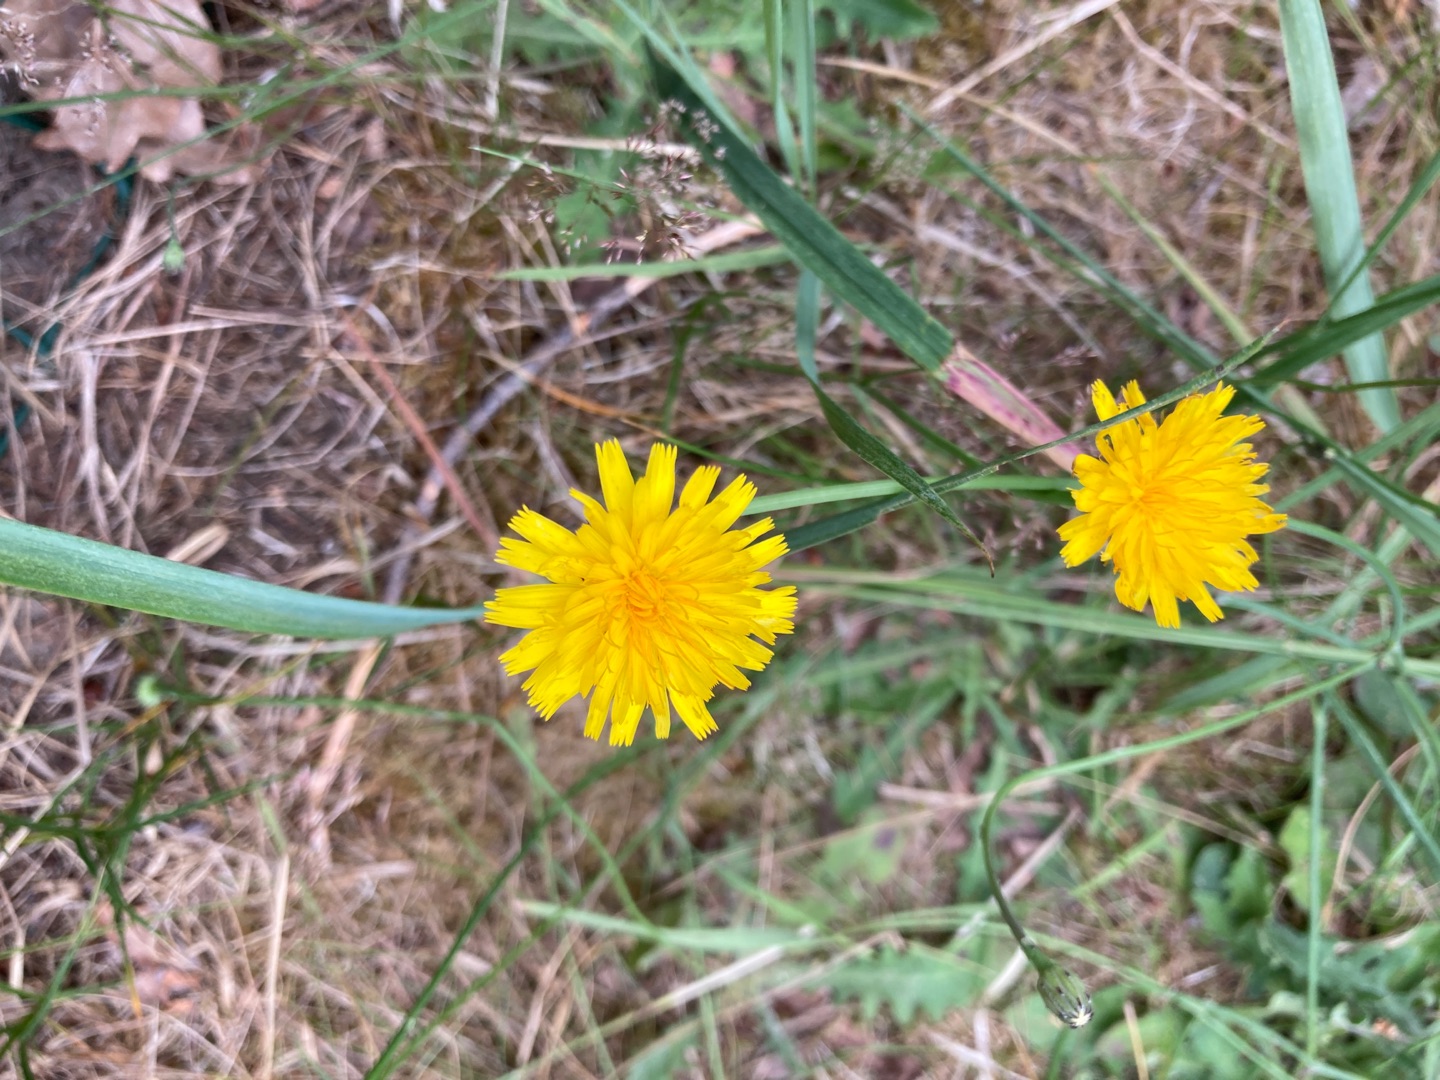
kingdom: Plantae
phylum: Tracheophyta
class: Magnoliopsida
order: Asterales
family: Asteraceae
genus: Hypochaeris
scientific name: Hypochaeris radicata
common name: Almindelig kongepen
